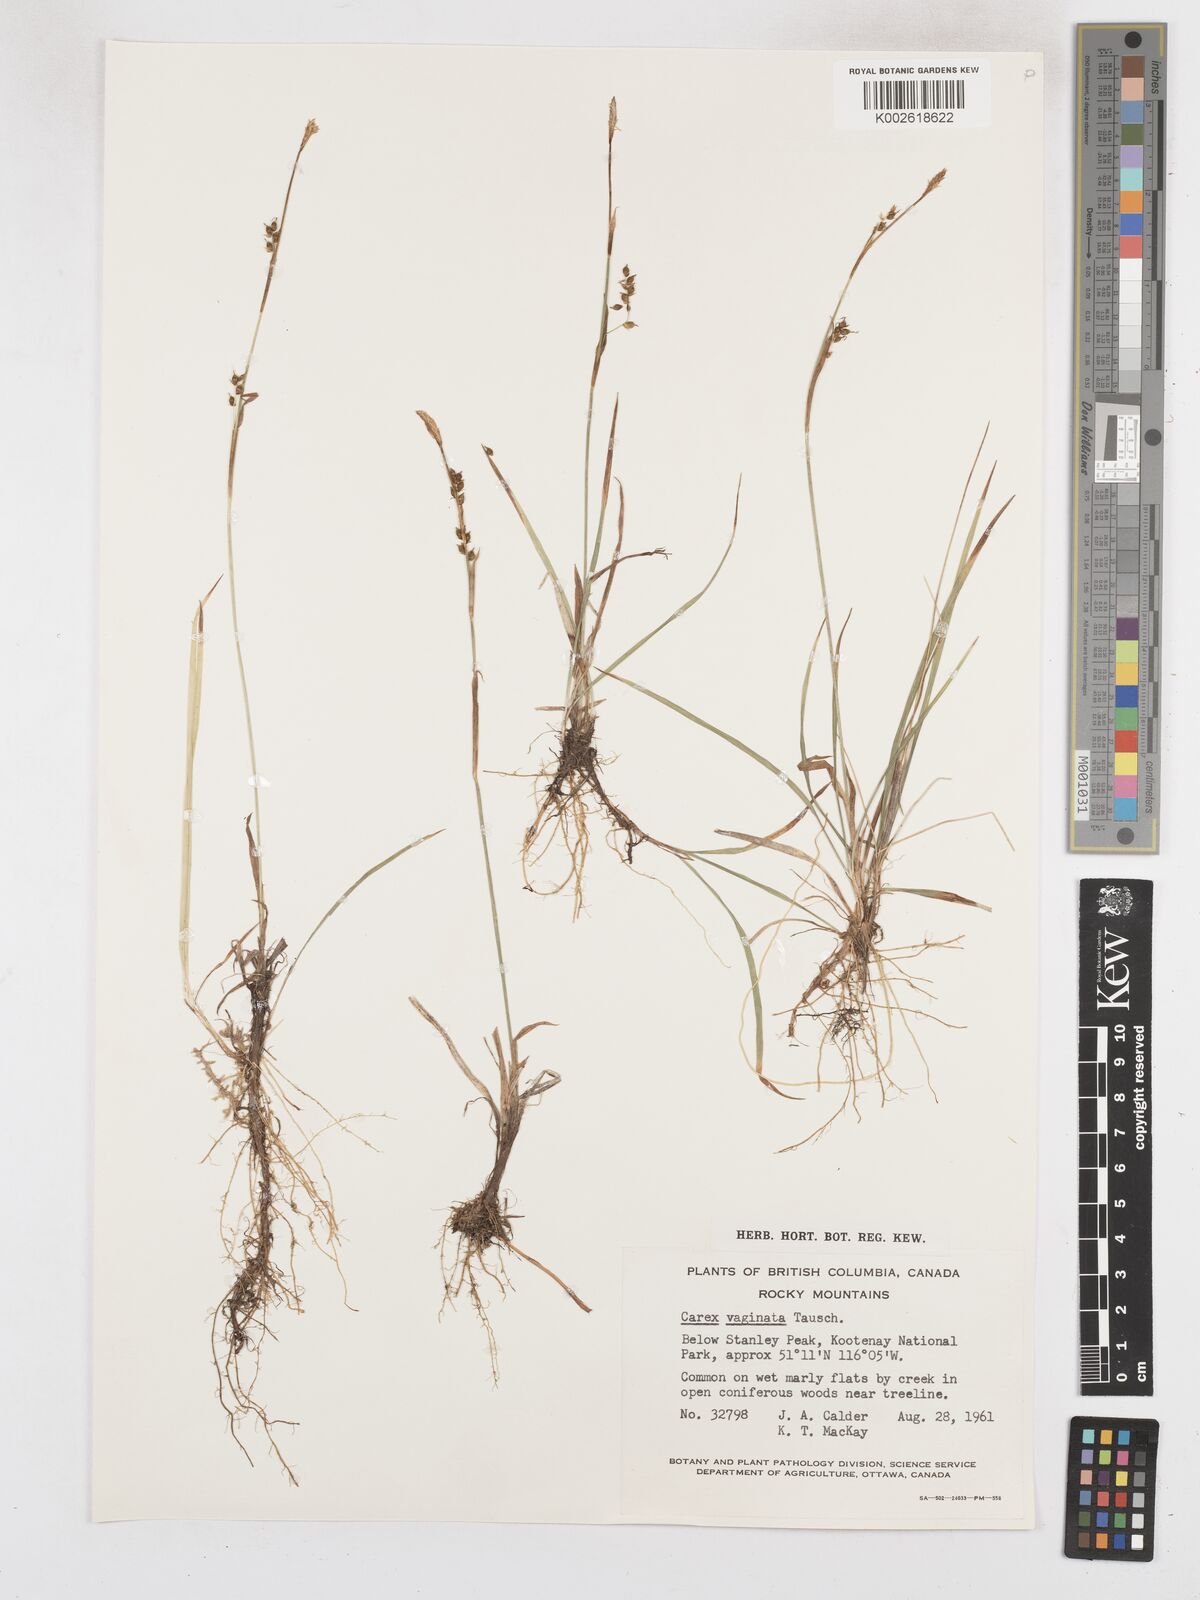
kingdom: Plantae
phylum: Tracheophyta
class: Liliopsida
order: Poales
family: Cyperaceae
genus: Carex
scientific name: Carex vaginata
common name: Sheathed sedge
